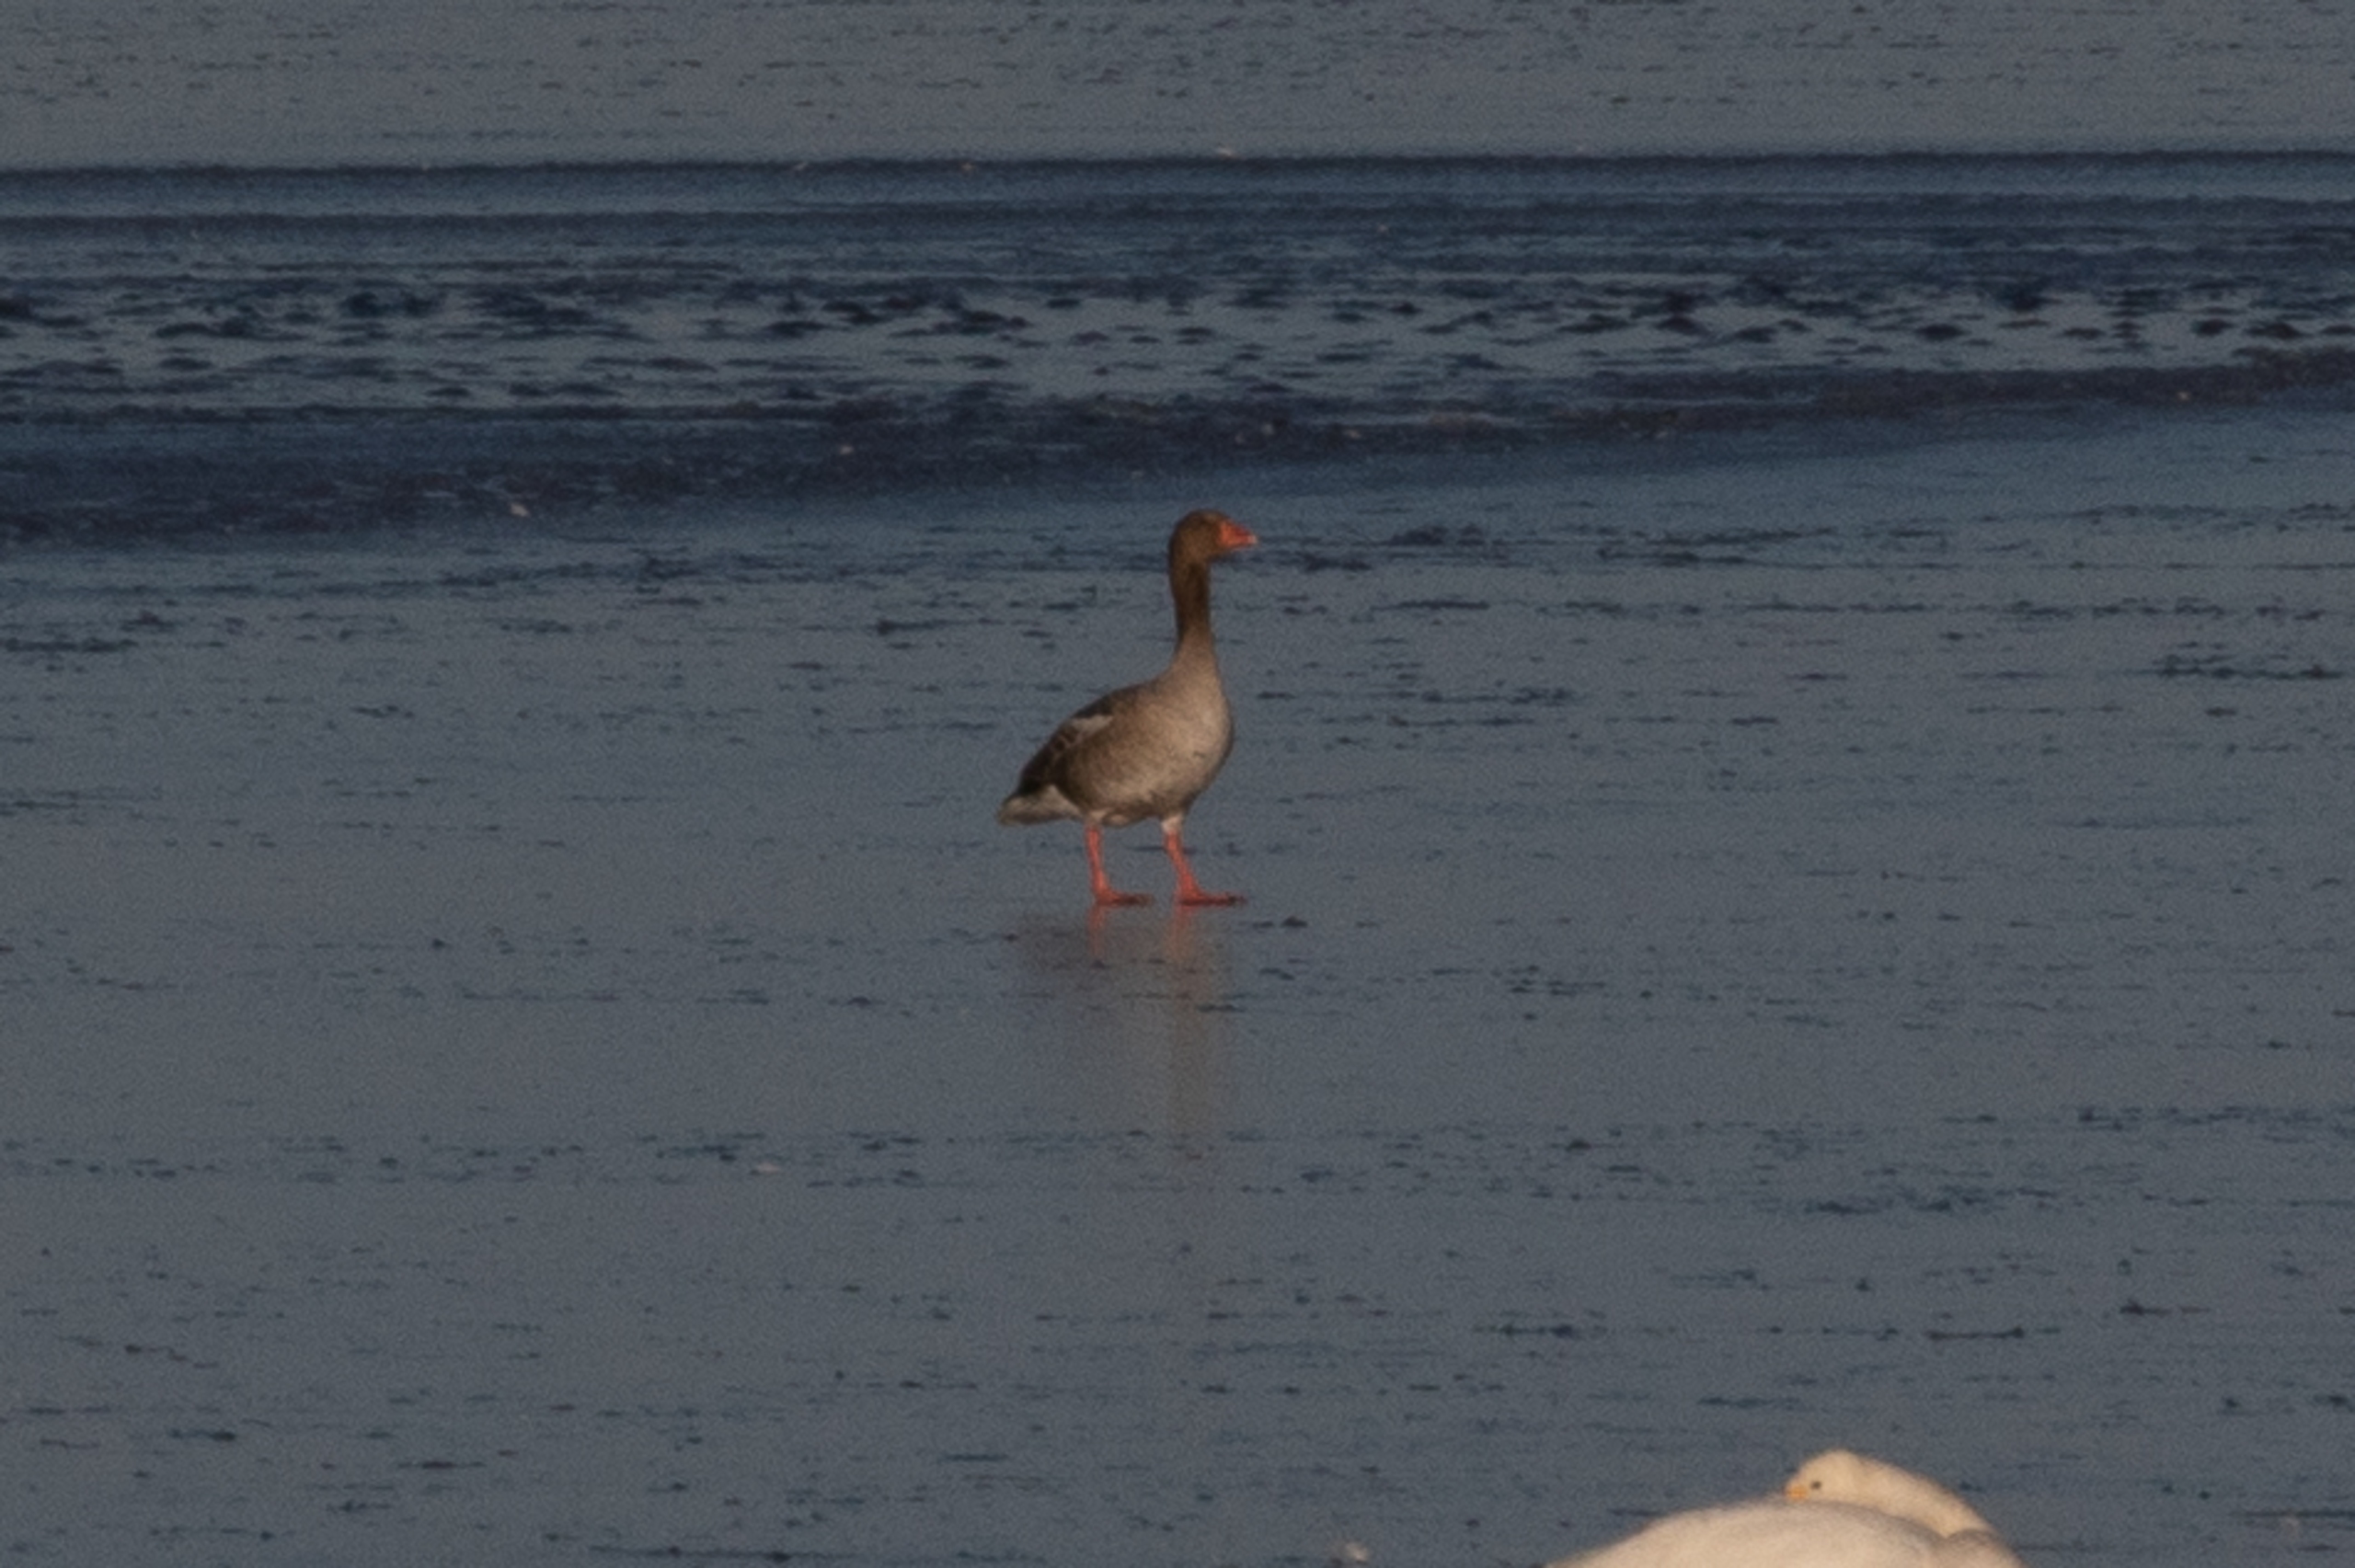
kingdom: Animalia
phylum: Chordata
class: Aves
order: Anseriformes
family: Anatidae
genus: Anser
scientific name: Anser anser
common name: Grågås
